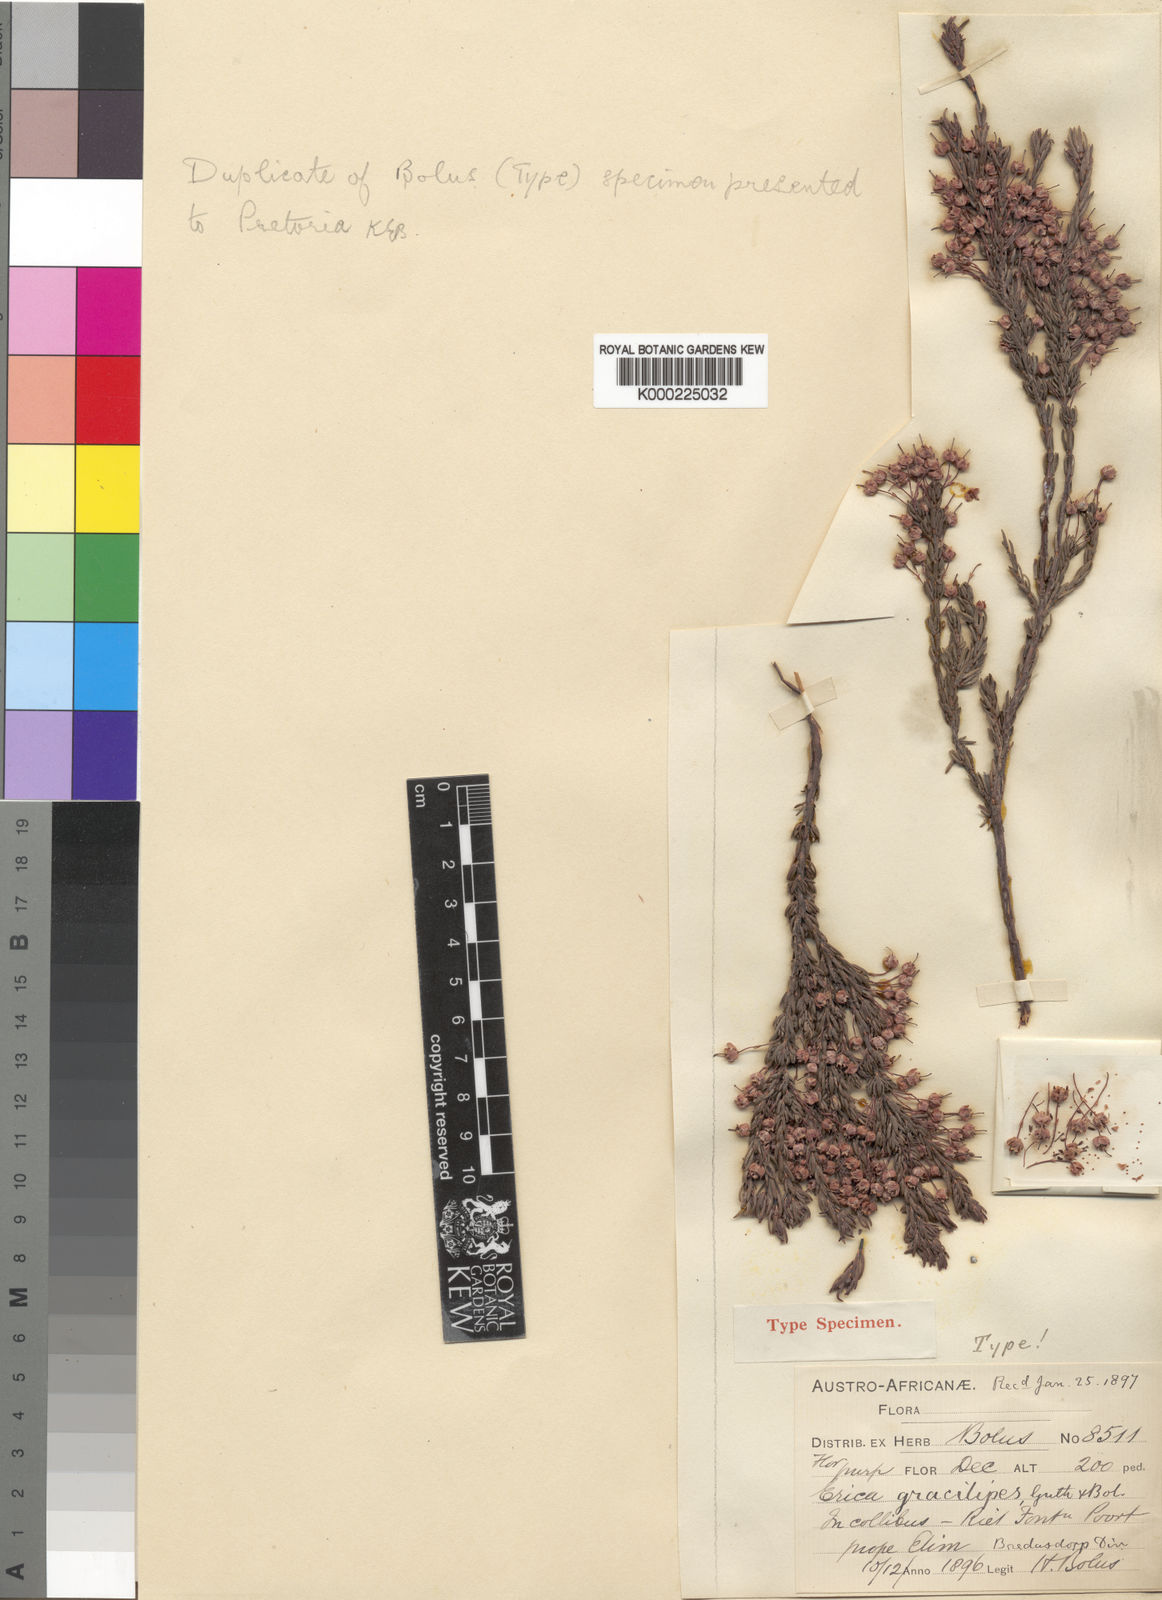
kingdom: Plantae
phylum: Tracheophyta
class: Magnoliopsida
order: Ericales
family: Ericaceae
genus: Erica
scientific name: Erica gracilipes
